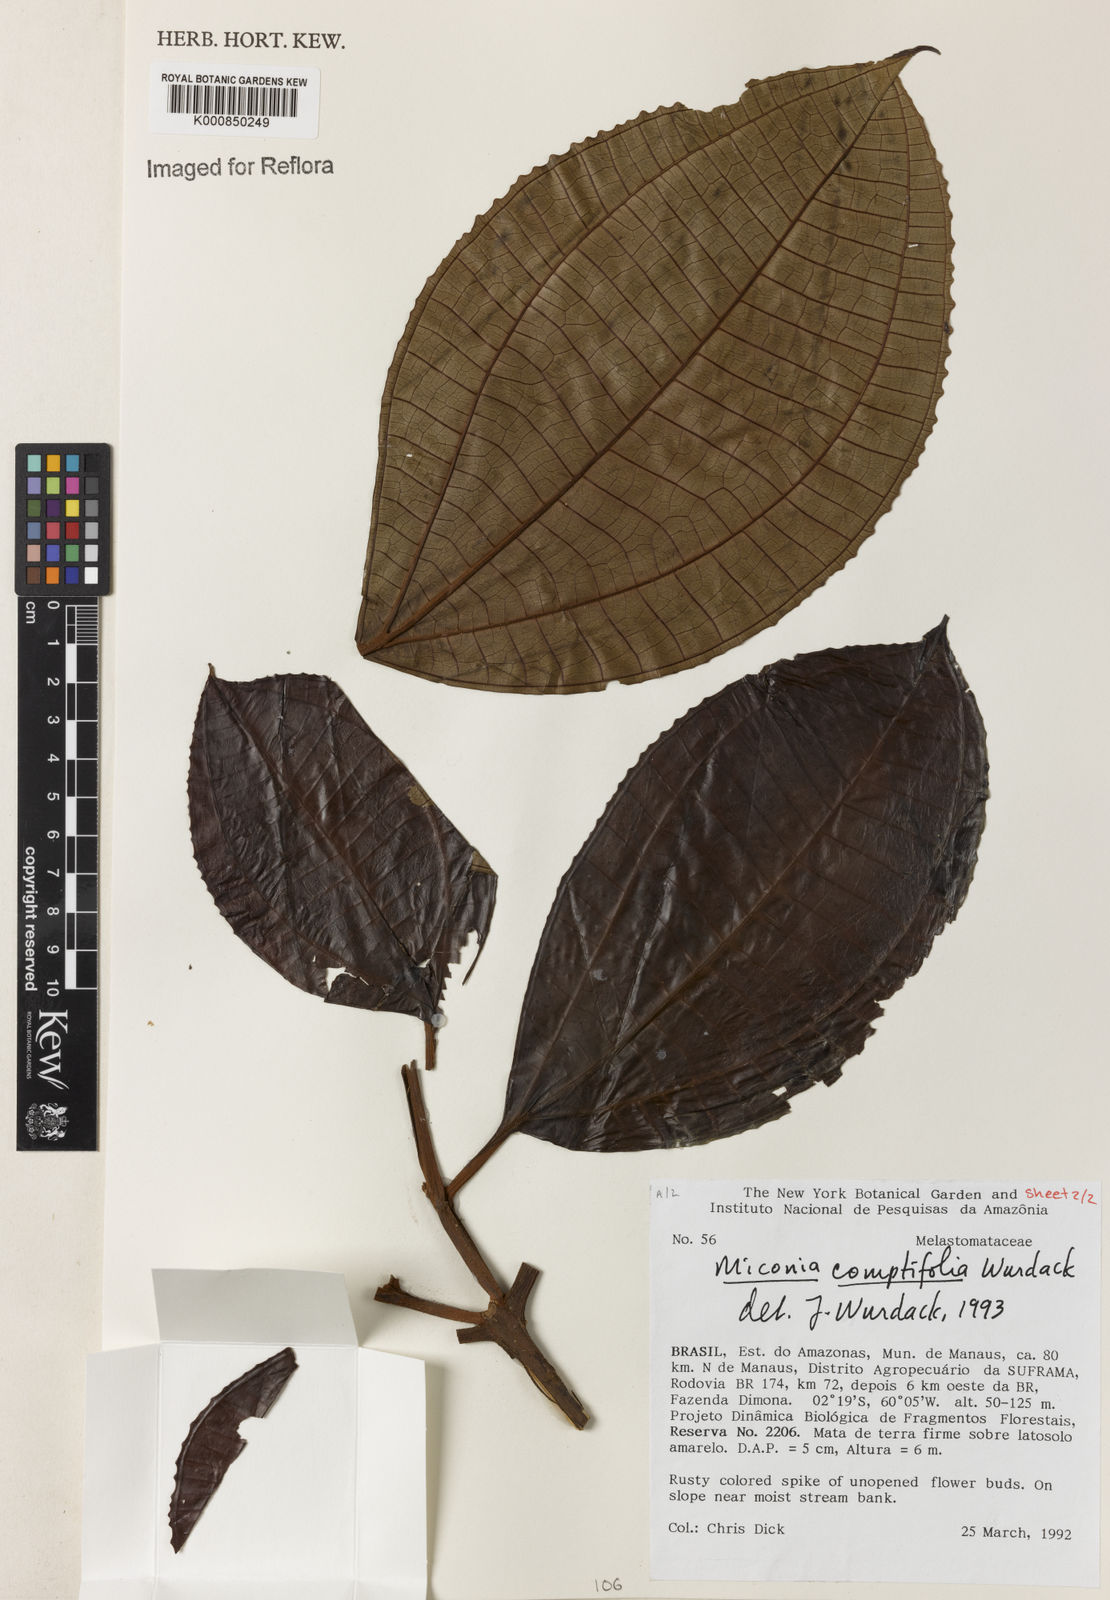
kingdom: Plantae
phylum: Tracheophyta
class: Magnoliopsida
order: Myrtales
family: Melastomataceae
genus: Miconia
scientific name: Miconia comptifolia
